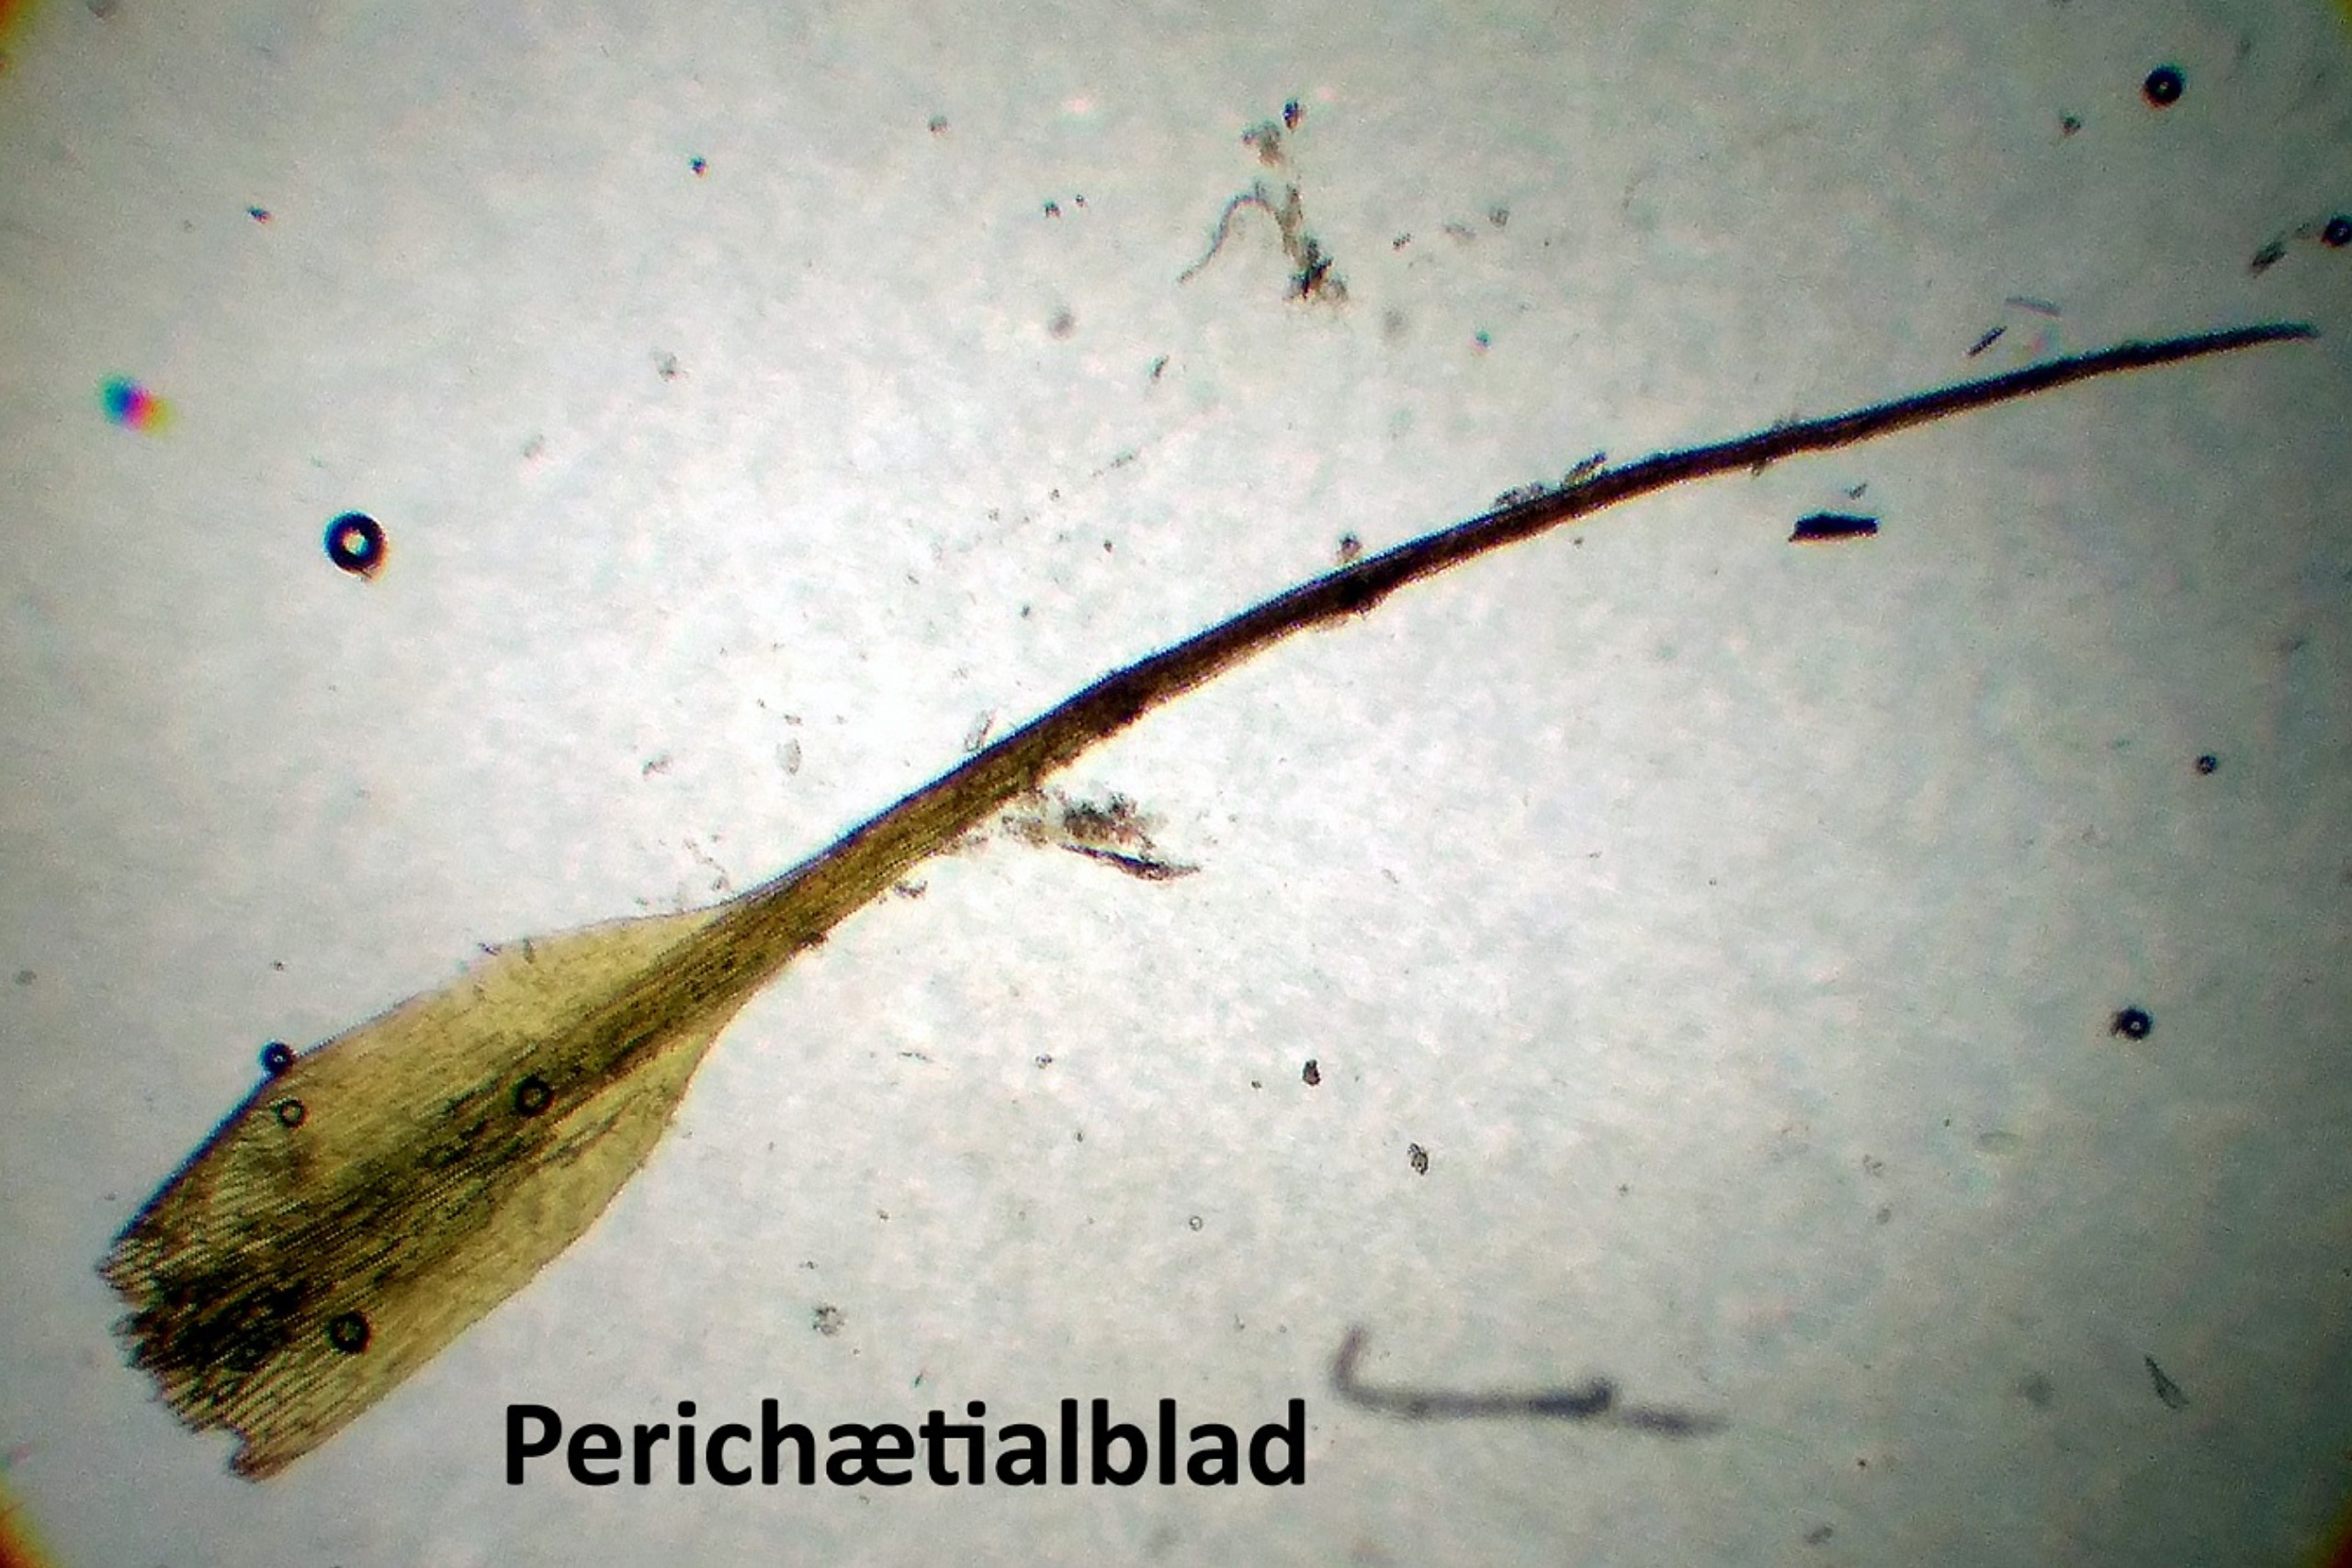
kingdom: Plantae
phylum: Bryophyta
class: Bryopsida
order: Dicranales
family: Ditrichaceae
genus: Ditrichum
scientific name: Ditrichum heteromallum
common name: Ensidig hårtand
